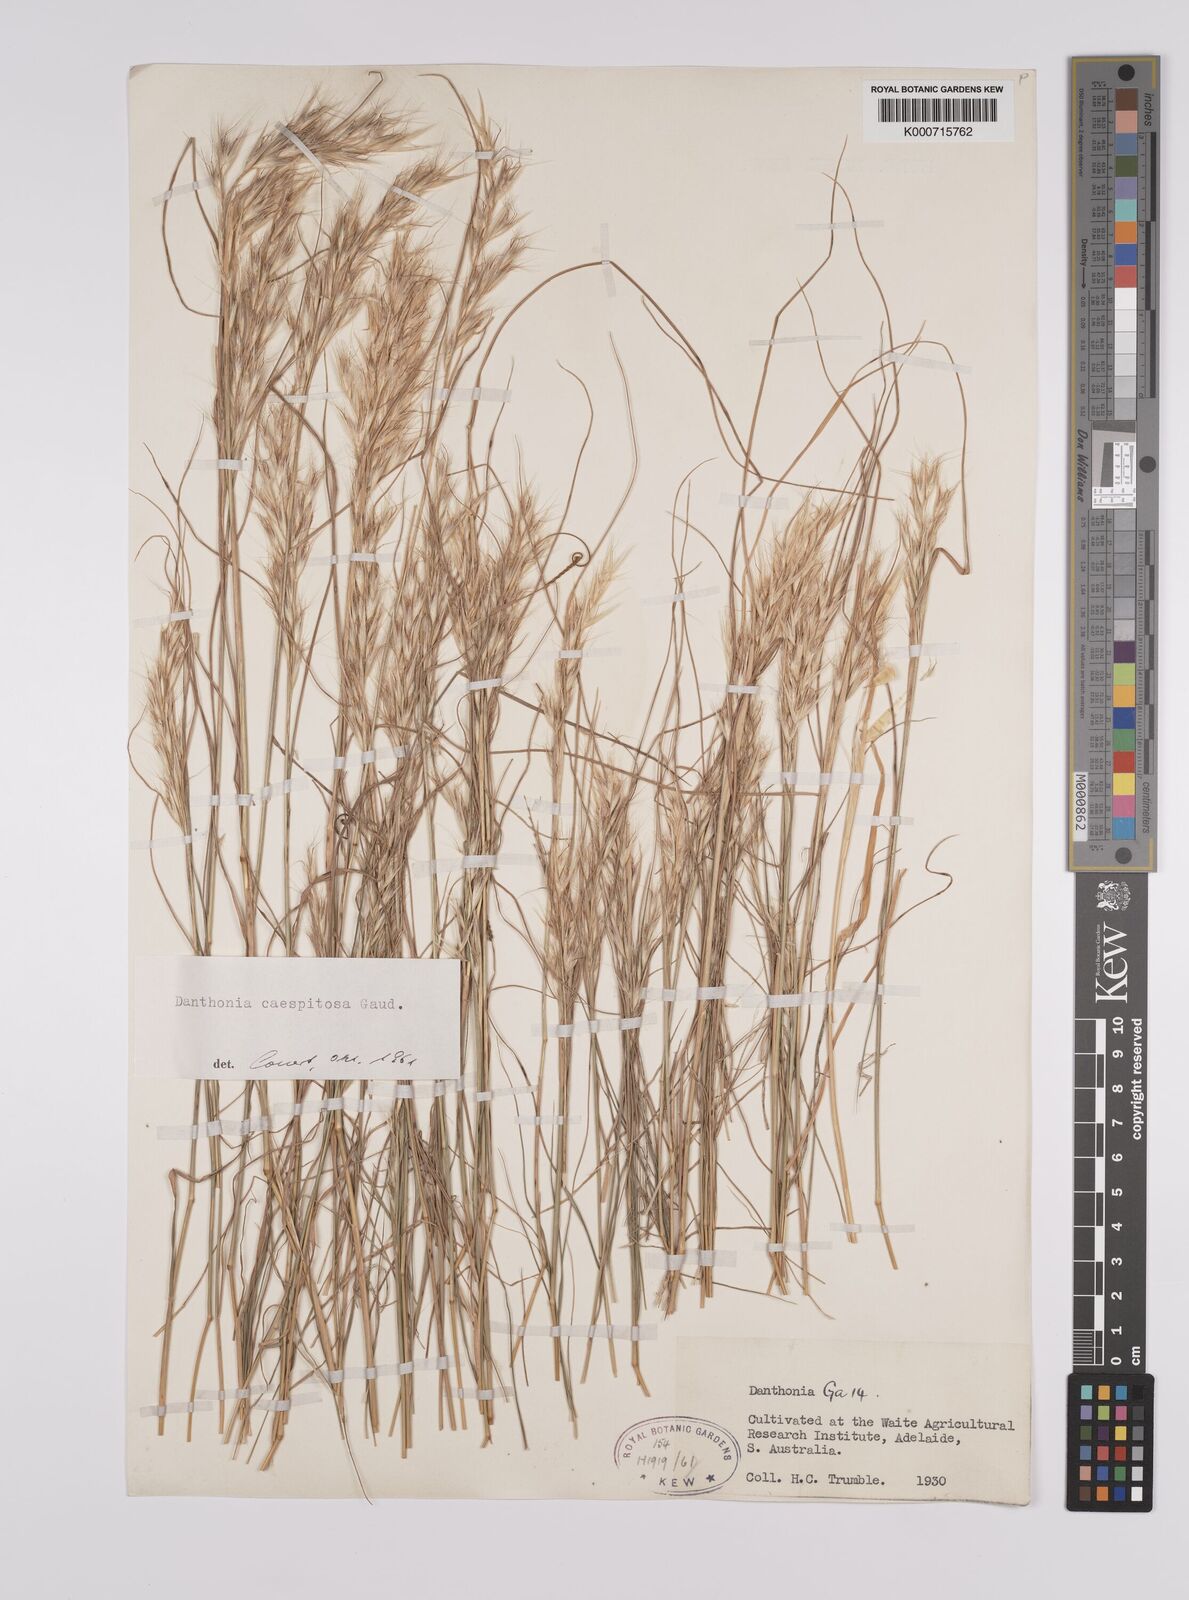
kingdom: Plantae
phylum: Tracheophyta
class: Liliopsida
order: Poales
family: Poaceae
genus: Rytidosperma
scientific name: Rytidosperma caespitosum
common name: Tufted wallaby grass
